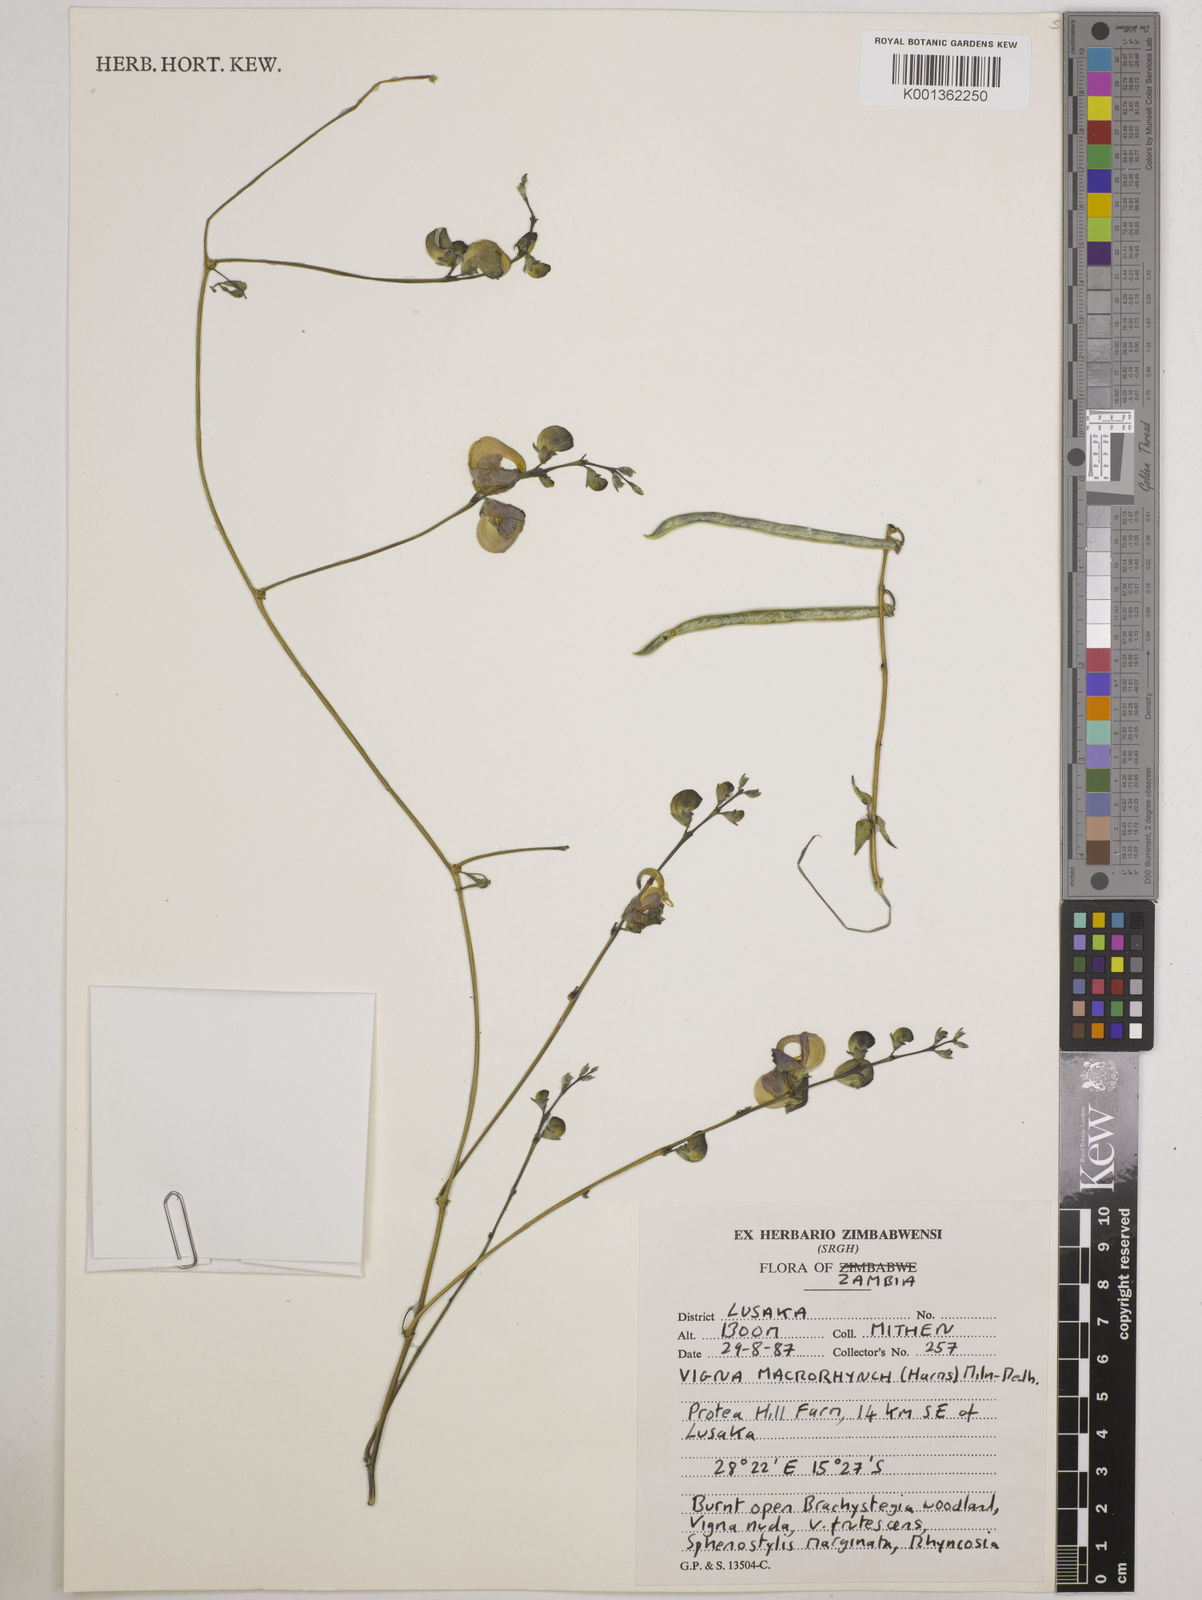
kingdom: Plantae
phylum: Tracheophyta
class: Magnoliopsida
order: Fabales
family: Fabaceae
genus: Wajira
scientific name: Wajira grahamiana
